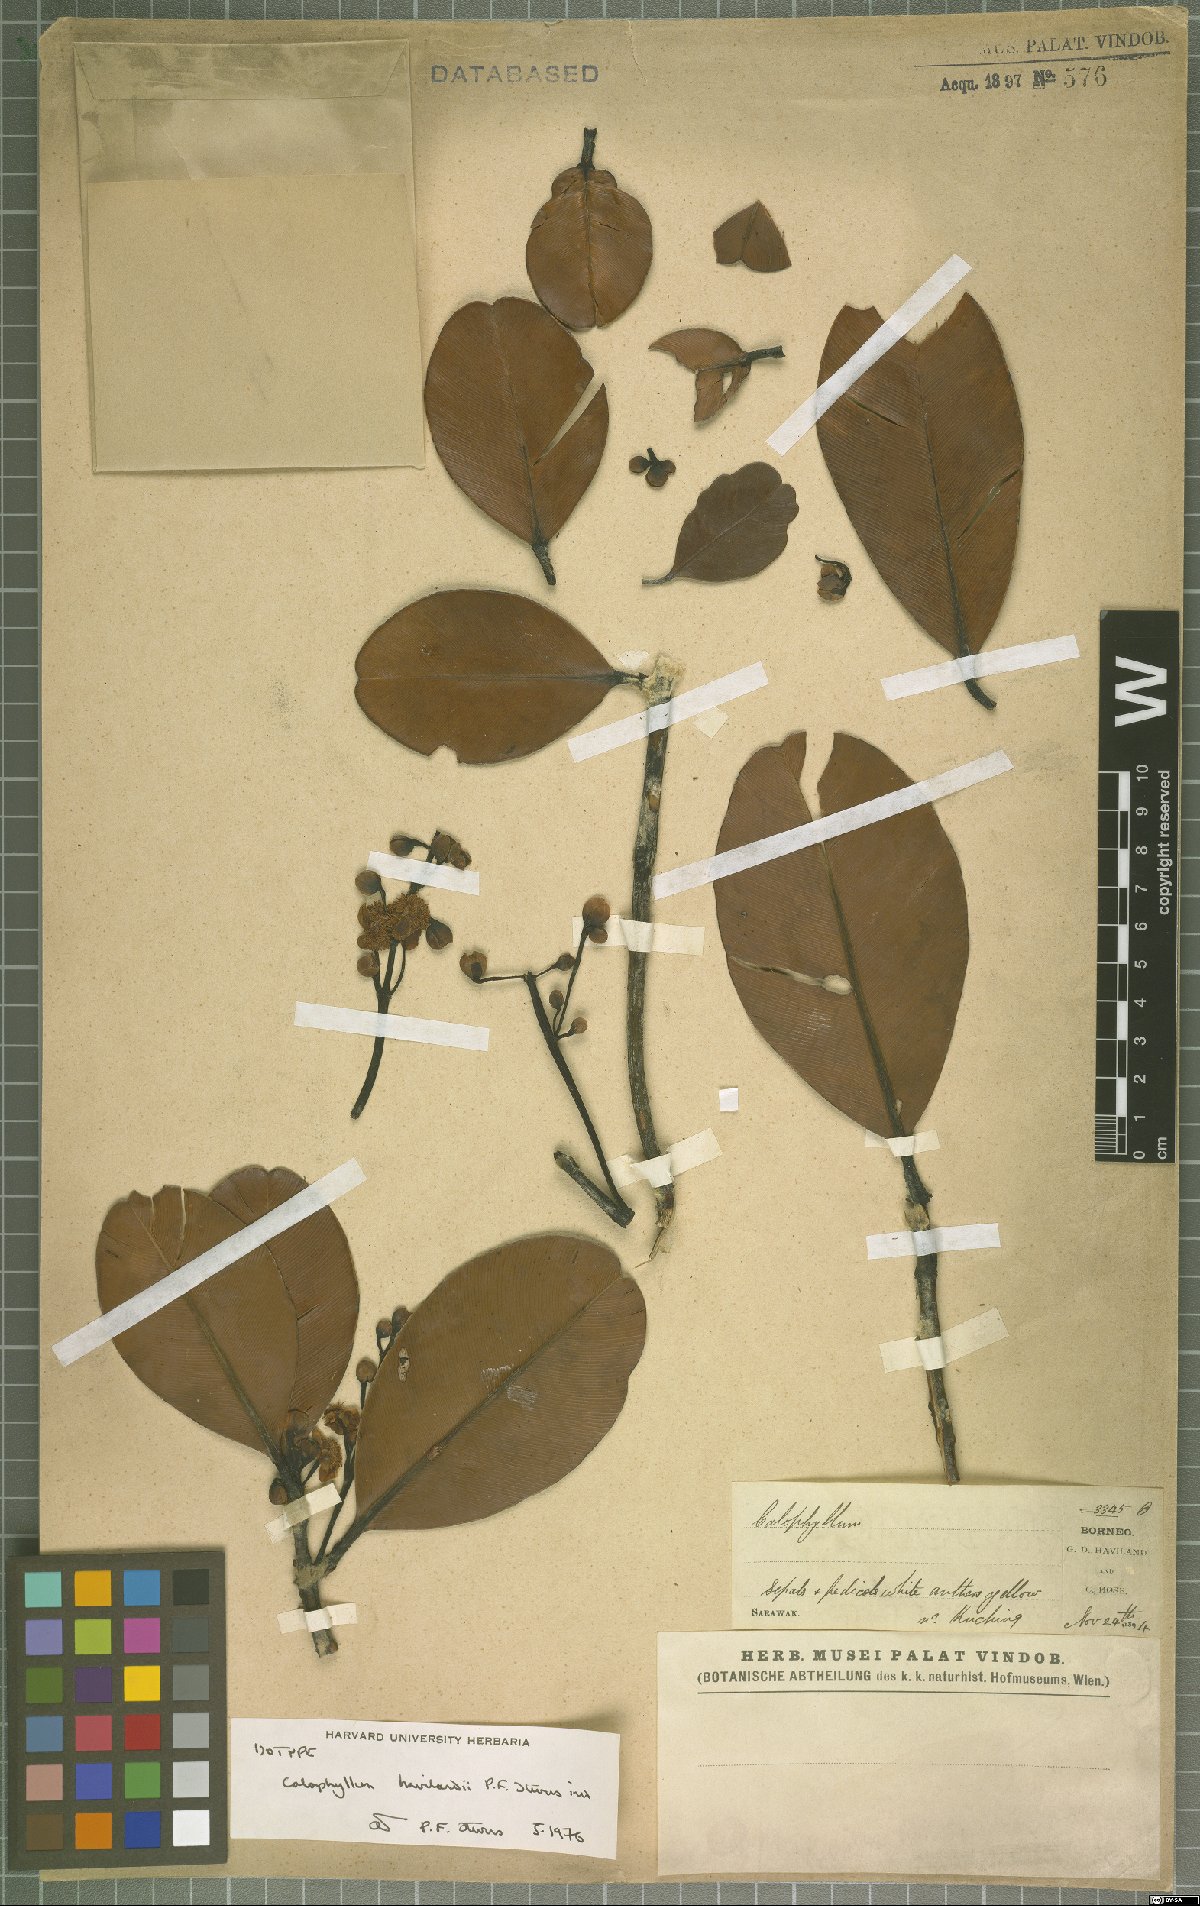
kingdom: Plantae
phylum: Tracheophyta
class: Magnoliopsida
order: Malpighiales
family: Calophyllaceae
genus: Calophyllum
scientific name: Calophyllum havilandii
